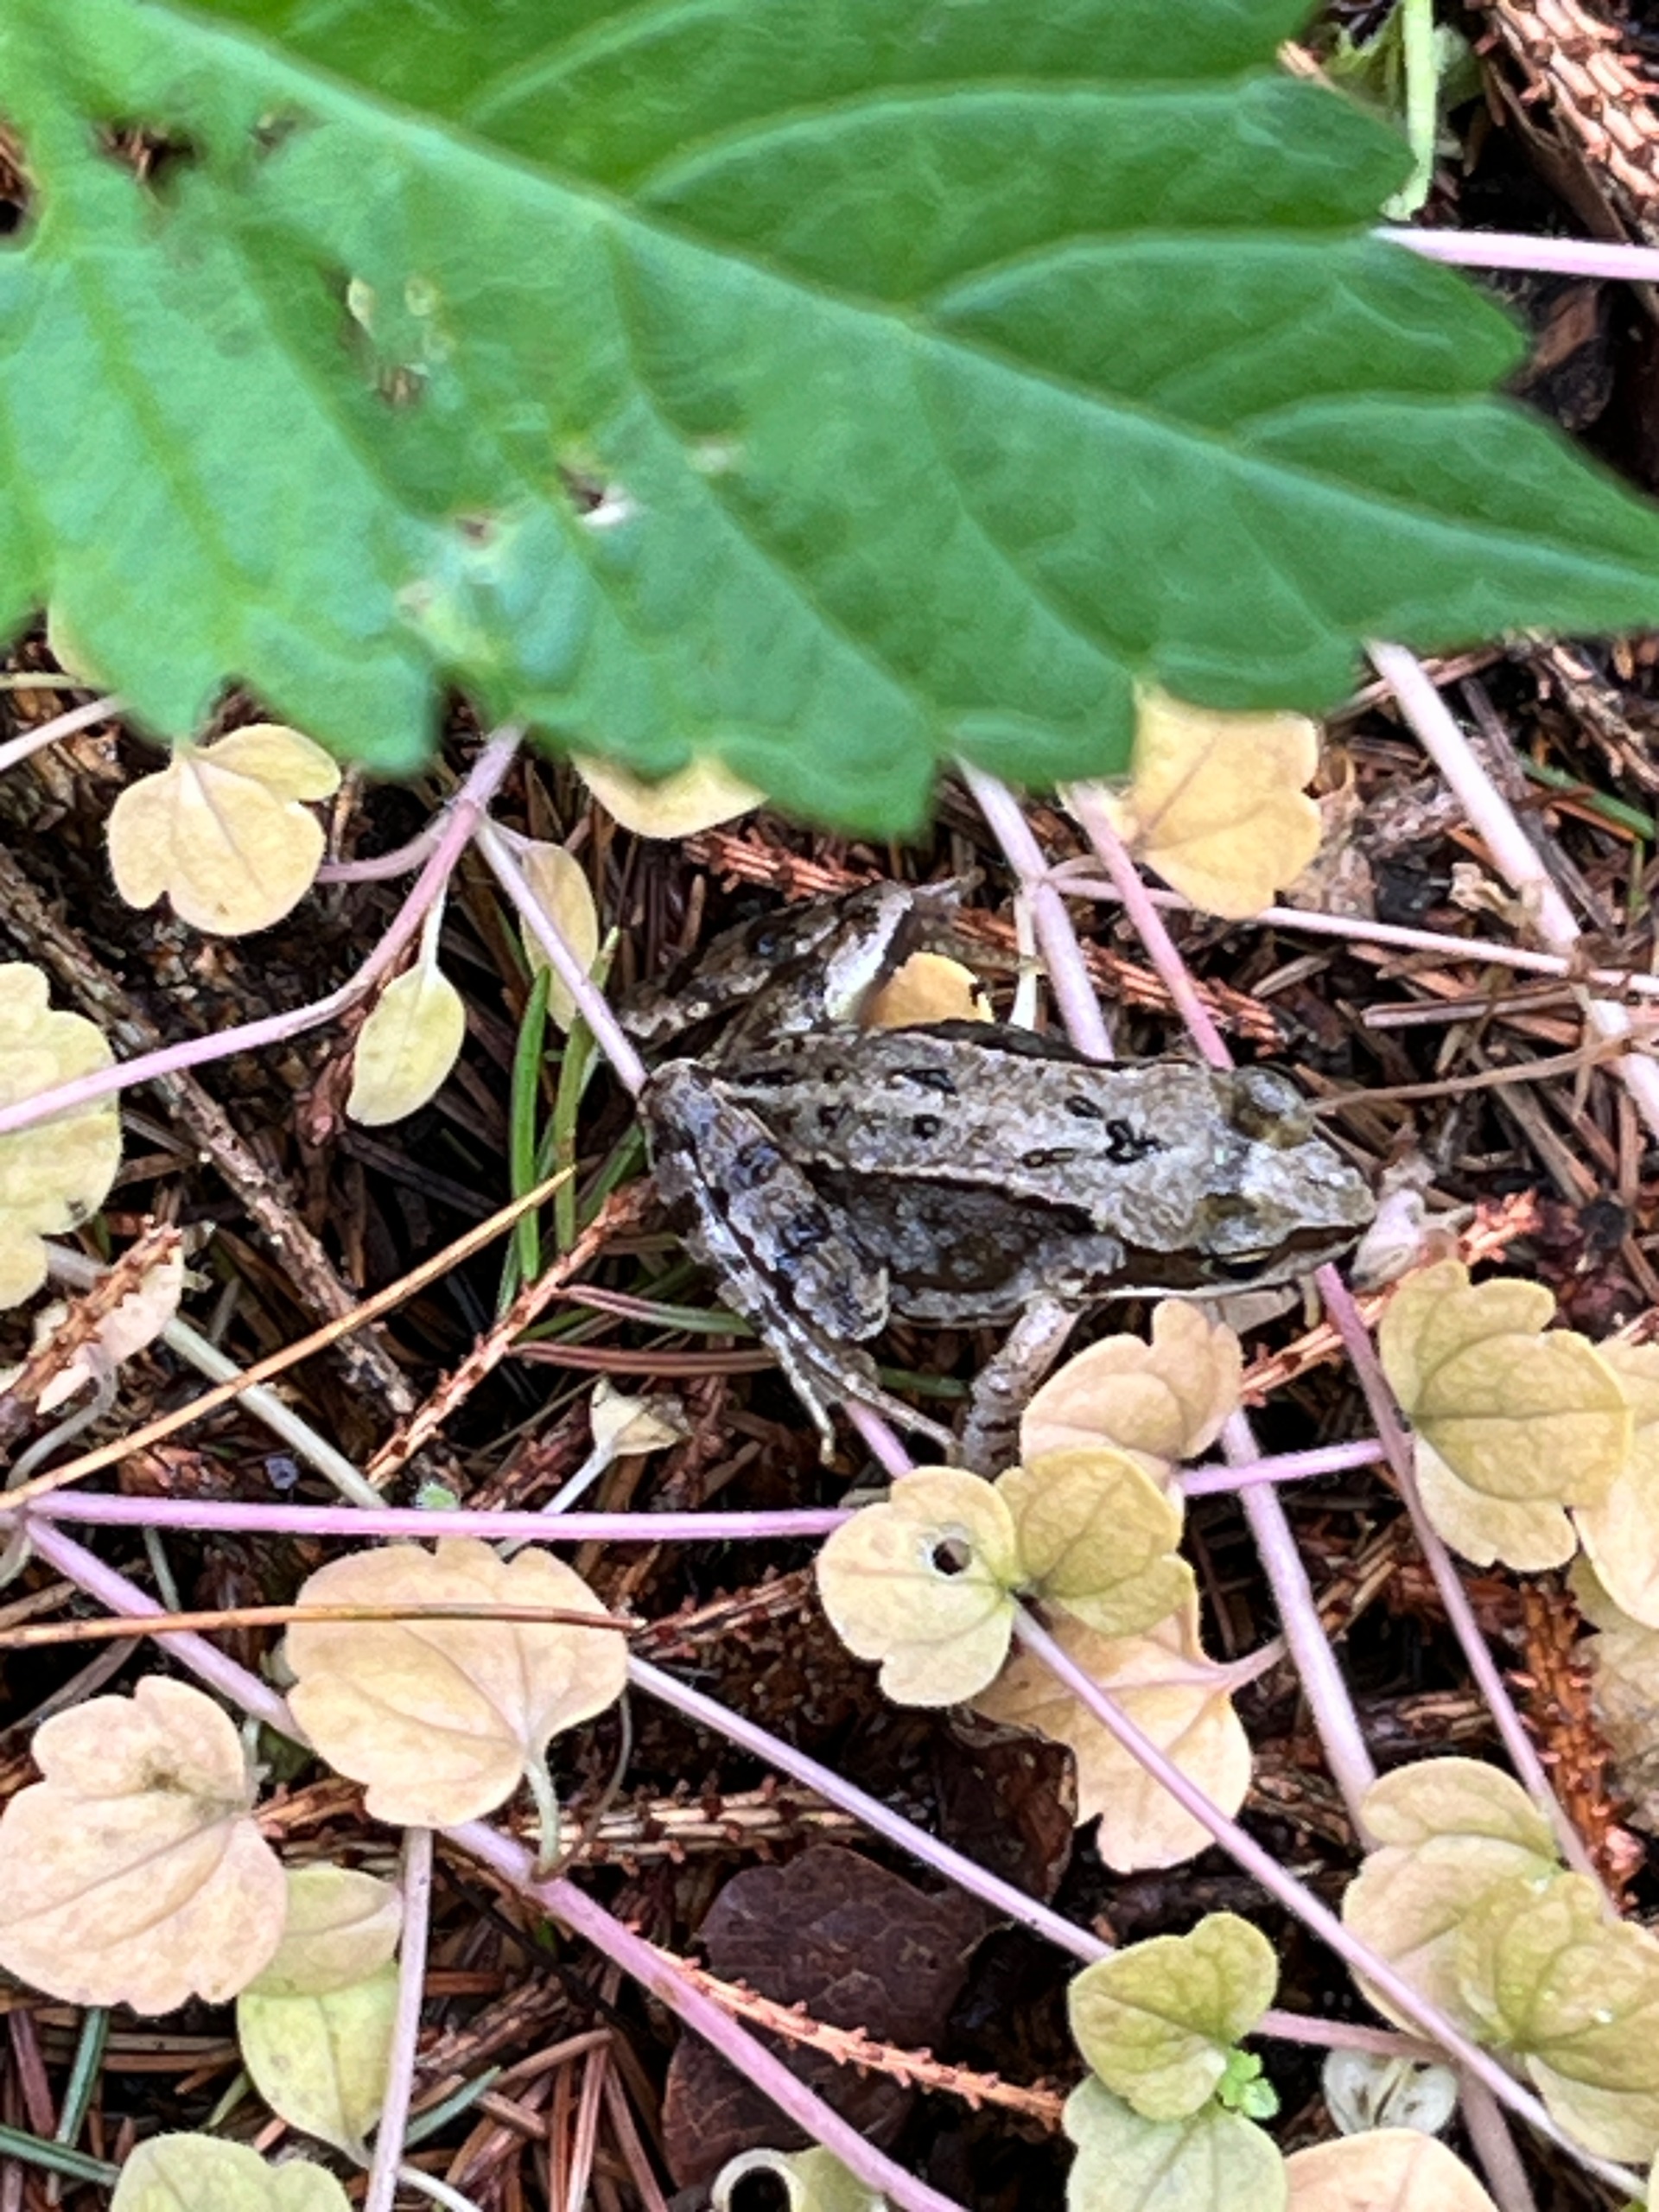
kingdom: Animalia
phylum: Chordata
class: Amphibia
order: Anura
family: Ranidae
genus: Rana
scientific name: Rana temporaria
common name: Butsnudet frø
